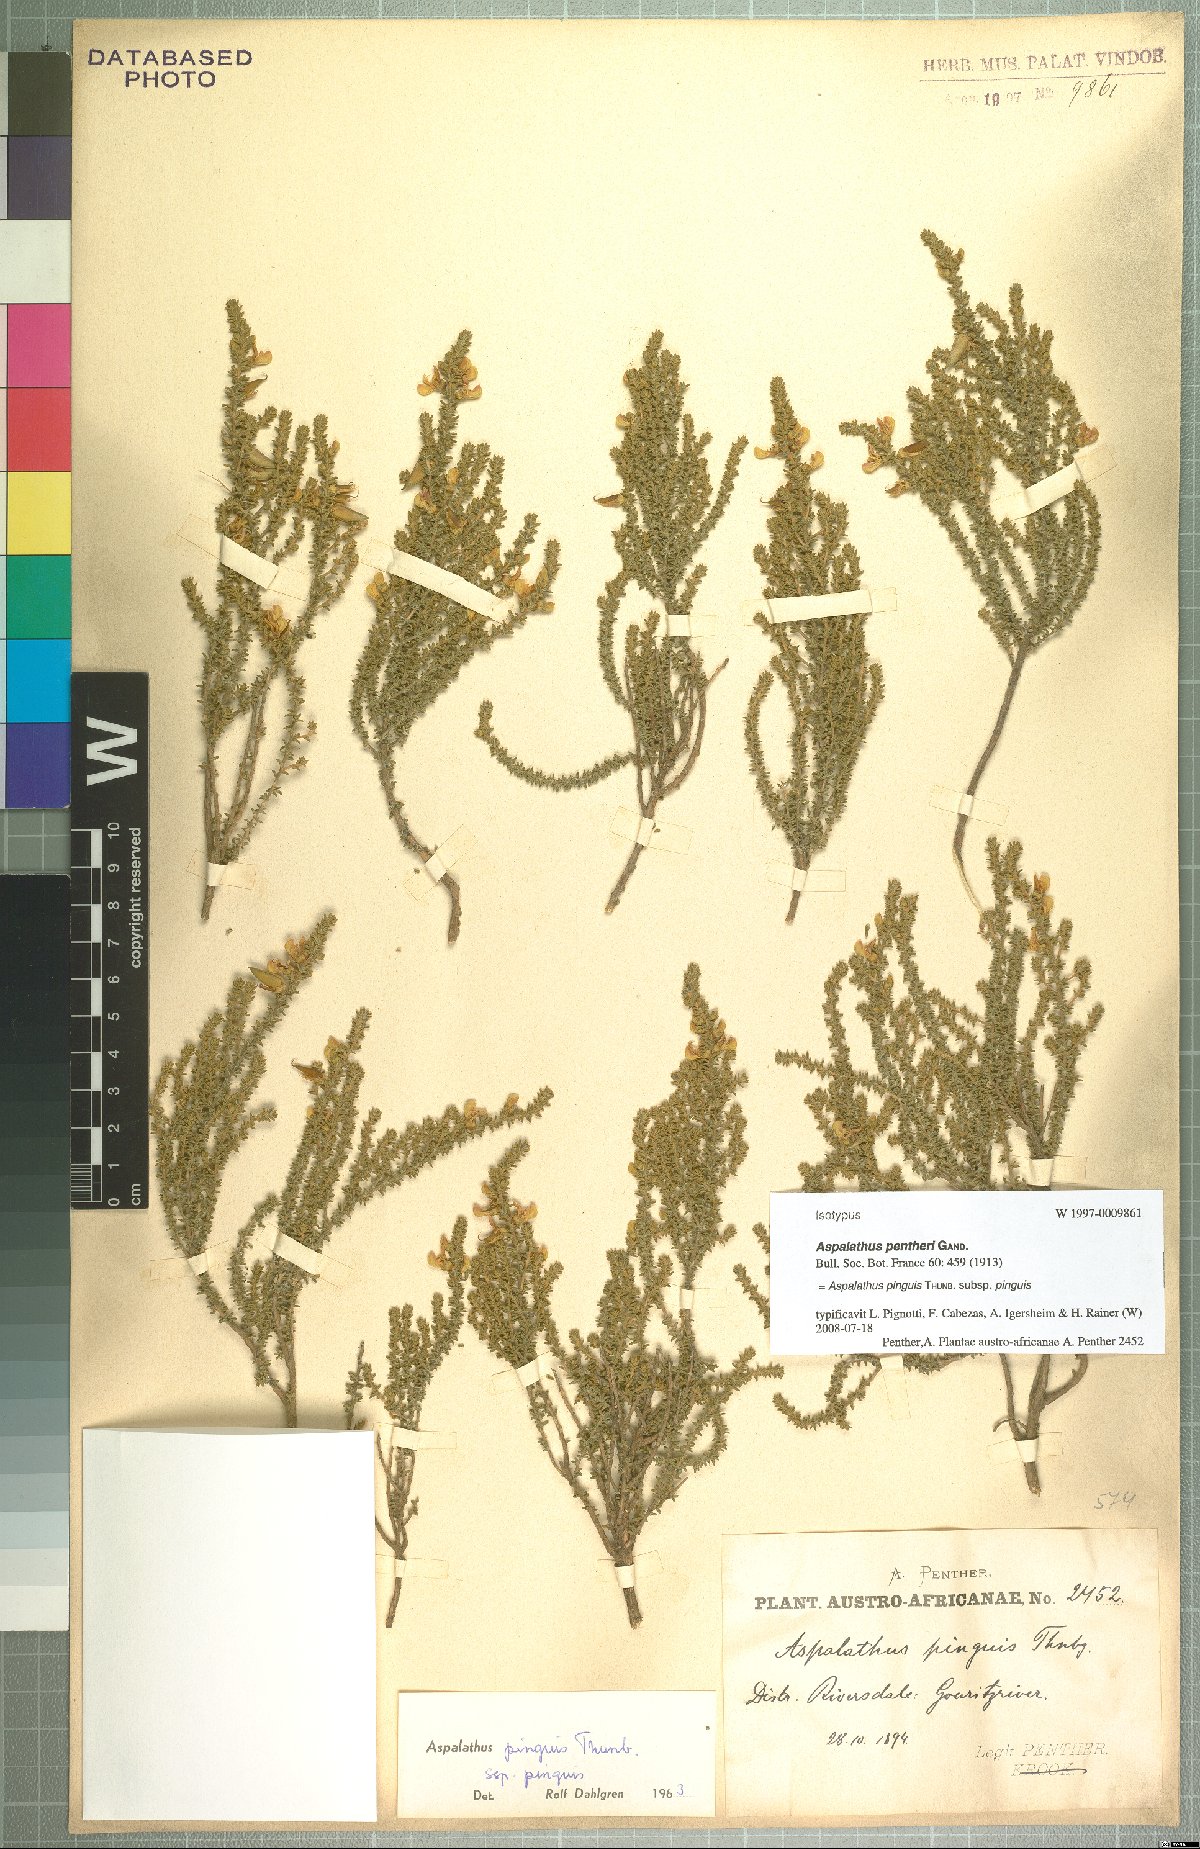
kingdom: Plantae
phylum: Tracheophyta
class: Magnoliopsida
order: Fabales
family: Fabaceae
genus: Aspalathus
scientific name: Aspalathus pinguis
